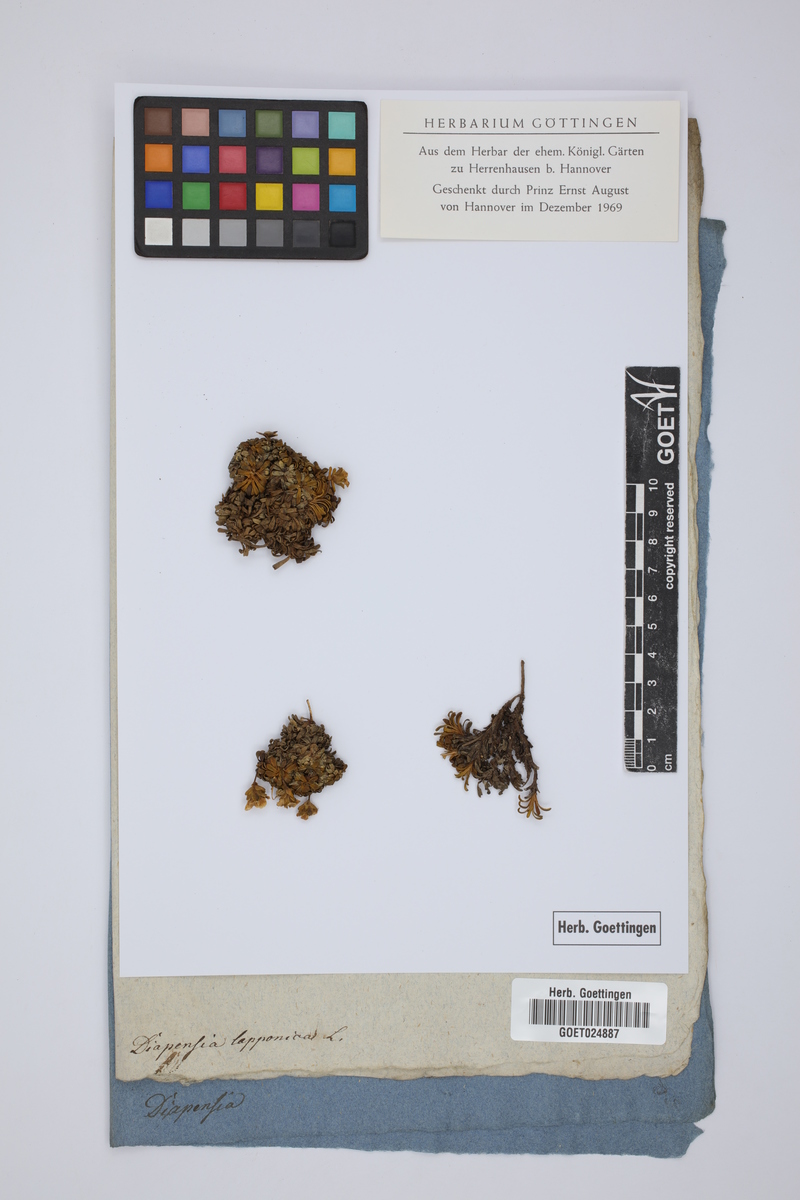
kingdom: Plantae
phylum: Tracheophyta
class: Magnoliopsida
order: Ericales
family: Diapensiaceae
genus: Diapensia
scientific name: Diapensia lapponica
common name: Diapensia
